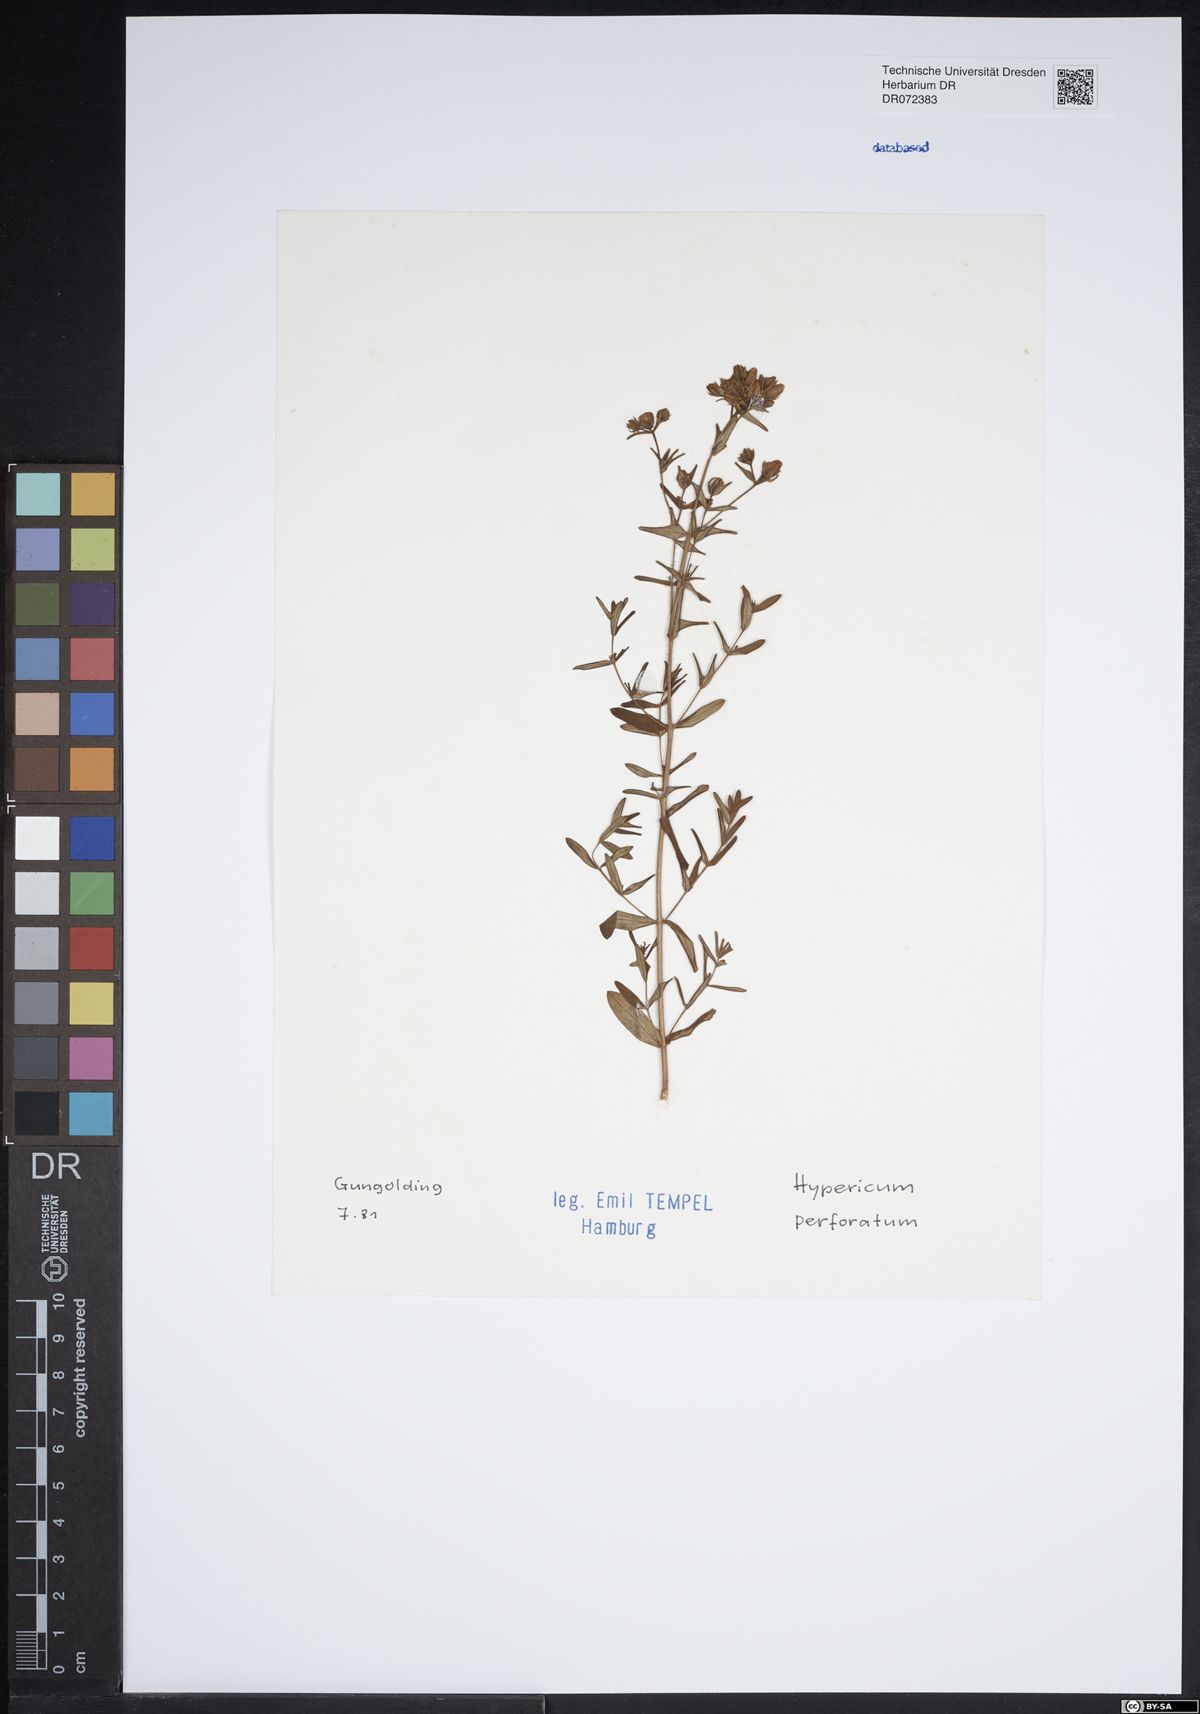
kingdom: Plantae
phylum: Tracheophyta
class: Magnoliopsida
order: Malpighiales
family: Hypericaceae
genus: Hypericum
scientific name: Hypericum perforatum
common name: Common st. johnswort
